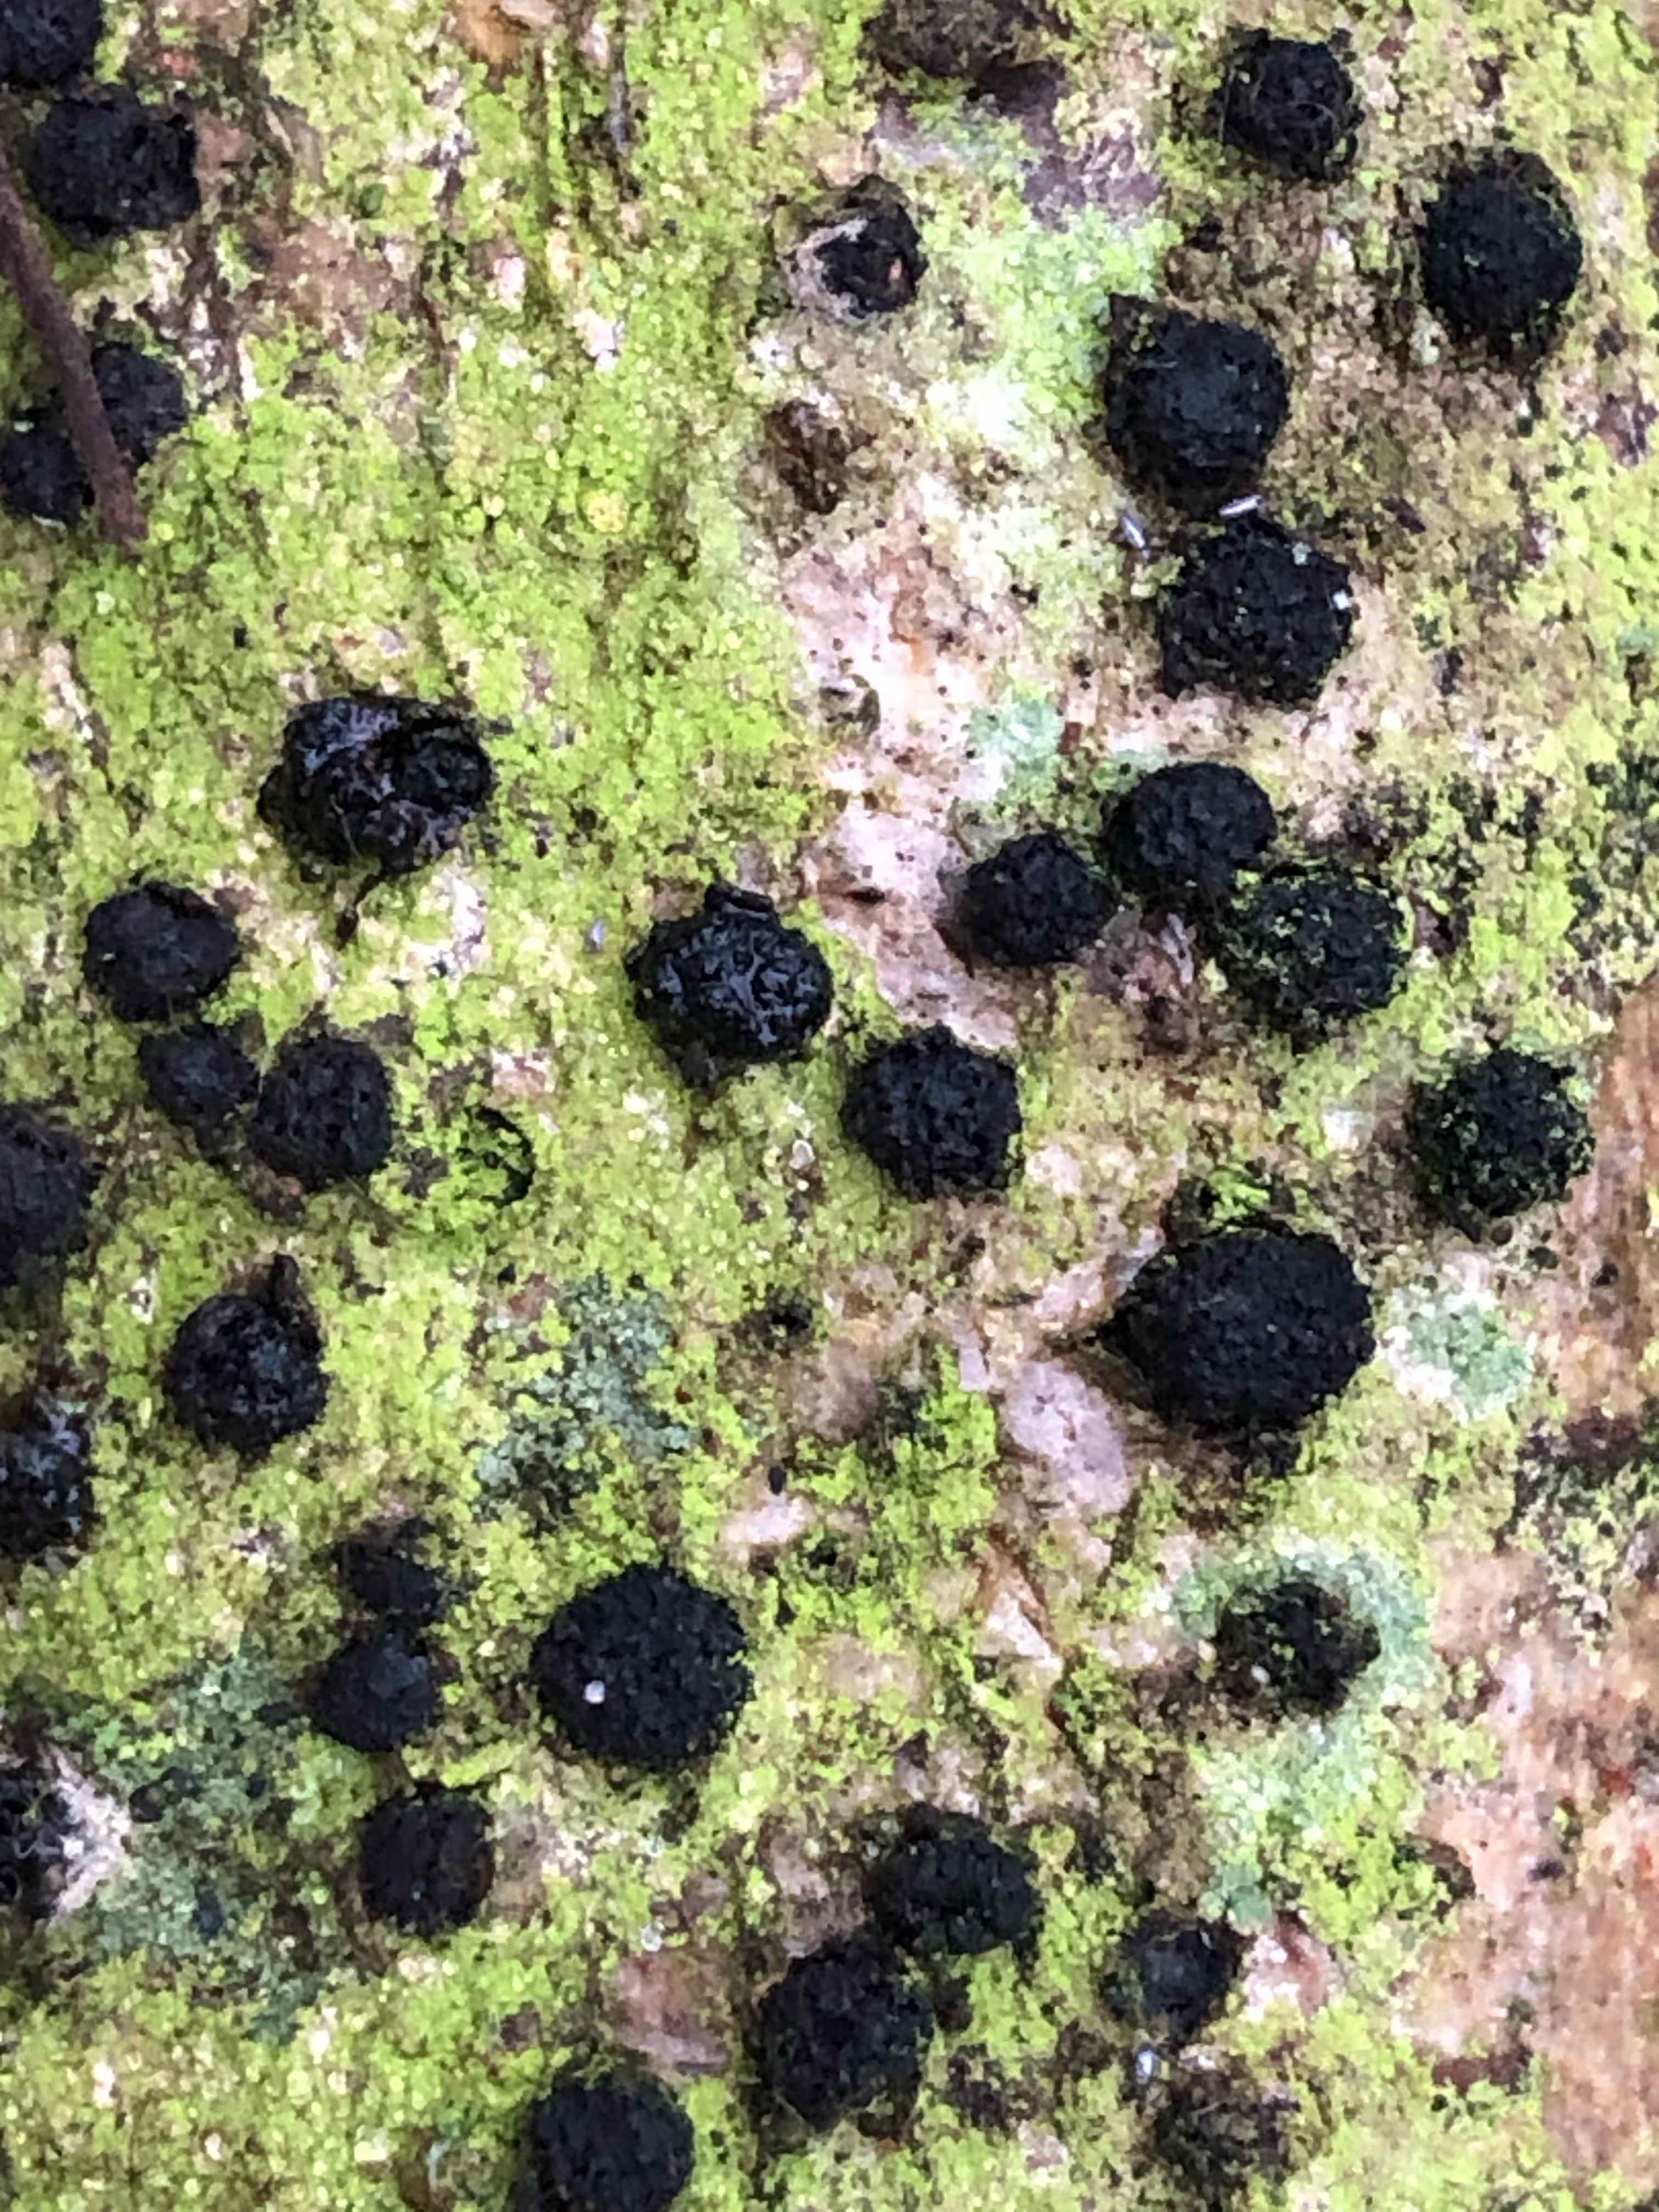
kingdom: Fungi
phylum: Ascomycota
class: Sordariomycetes
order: Xylariales
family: Diatrypaceae
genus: Diatrypella
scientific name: Diatrypella quercina
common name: ege-kulskorpe
